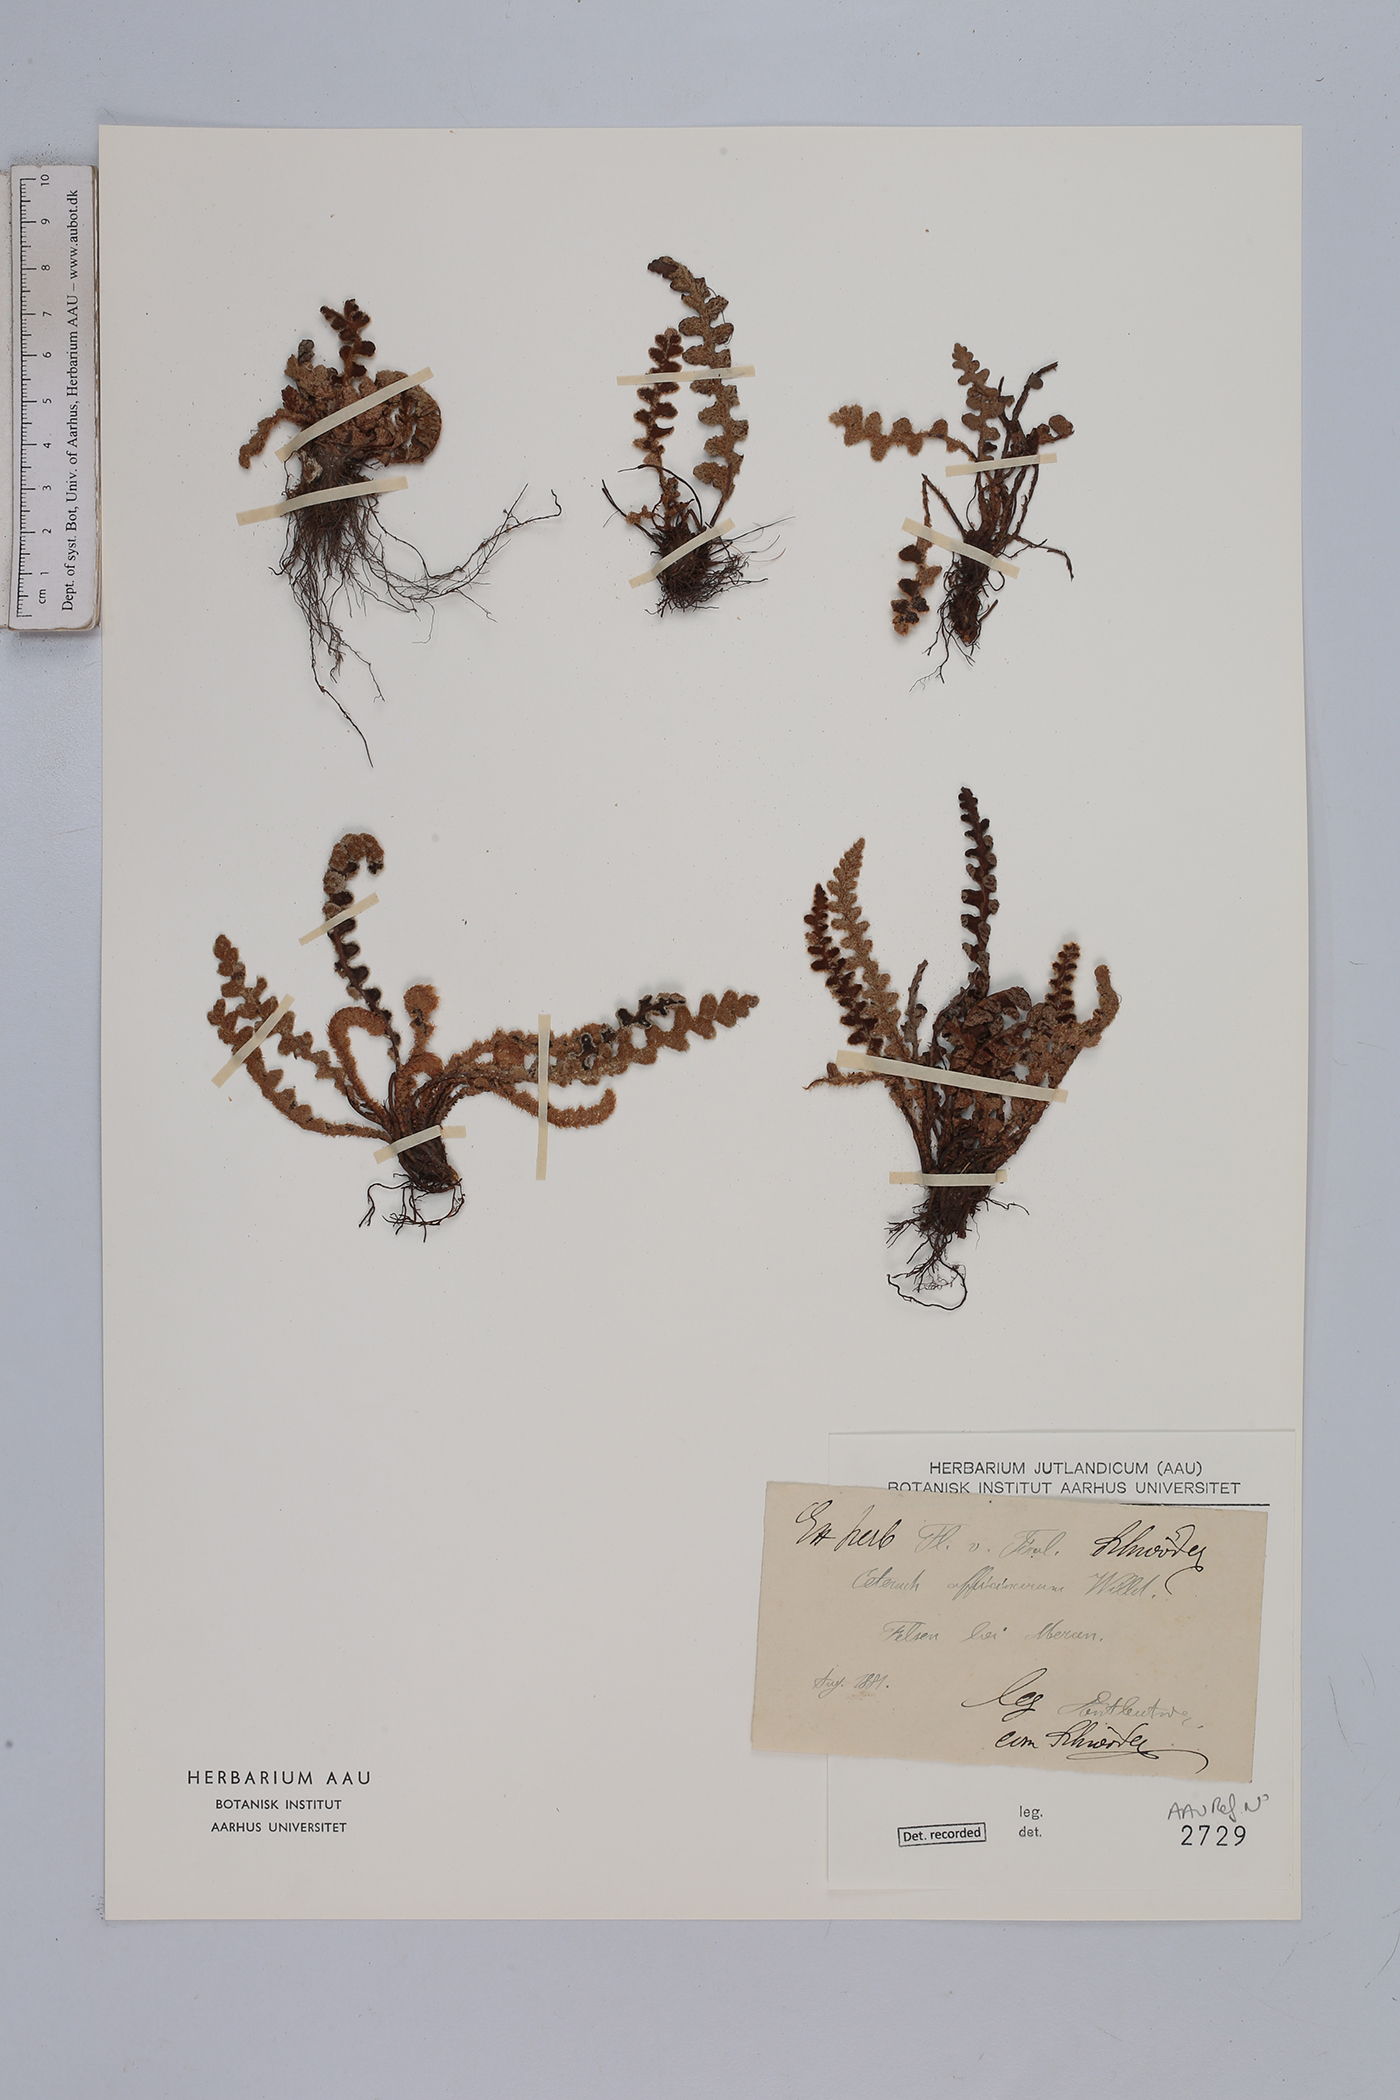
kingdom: Plantae
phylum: Tracheophyta
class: Polypodiopsida
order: Polypodiales
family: Aspleniaceae
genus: Asplenium
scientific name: Asplenium ceterach
